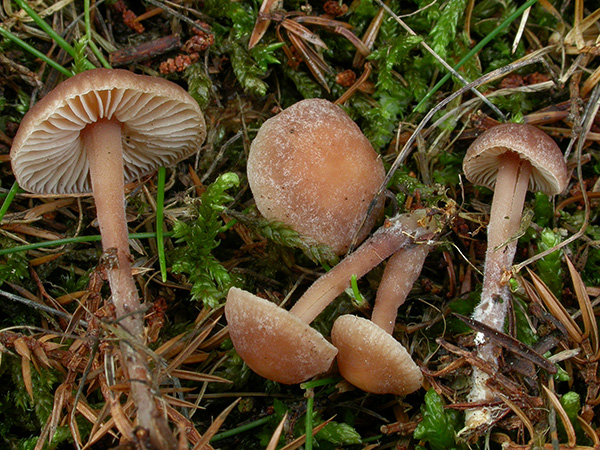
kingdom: Fungi
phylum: Basidiomycota
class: Agaricomycetes
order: Agaricales
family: Omphalotaceae
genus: Gymnopus
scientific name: Gymnopus impudicus
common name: fesen fladhat
